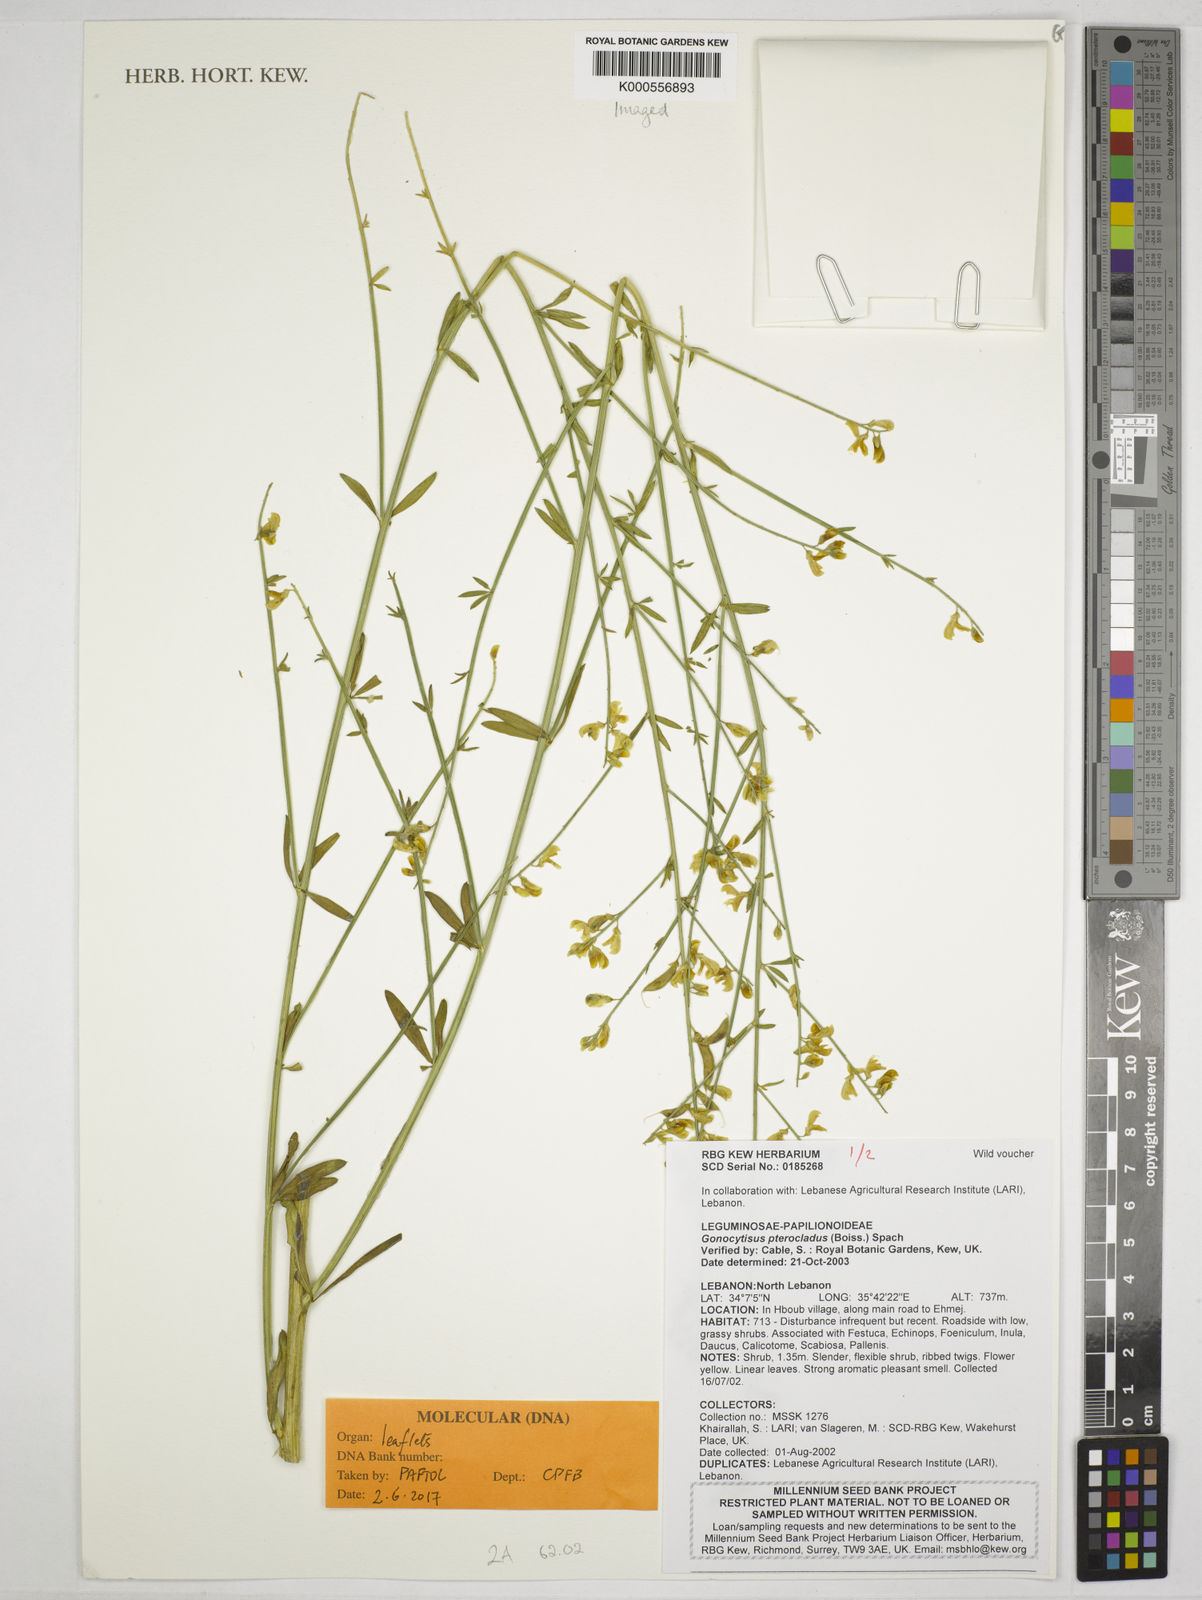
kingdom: Plantae
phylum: Tracheophyta
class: Magnoliopsida
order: Fabales
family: Fabaceae
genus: Gonocytisus
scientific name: Gonocytisus pterocladus
